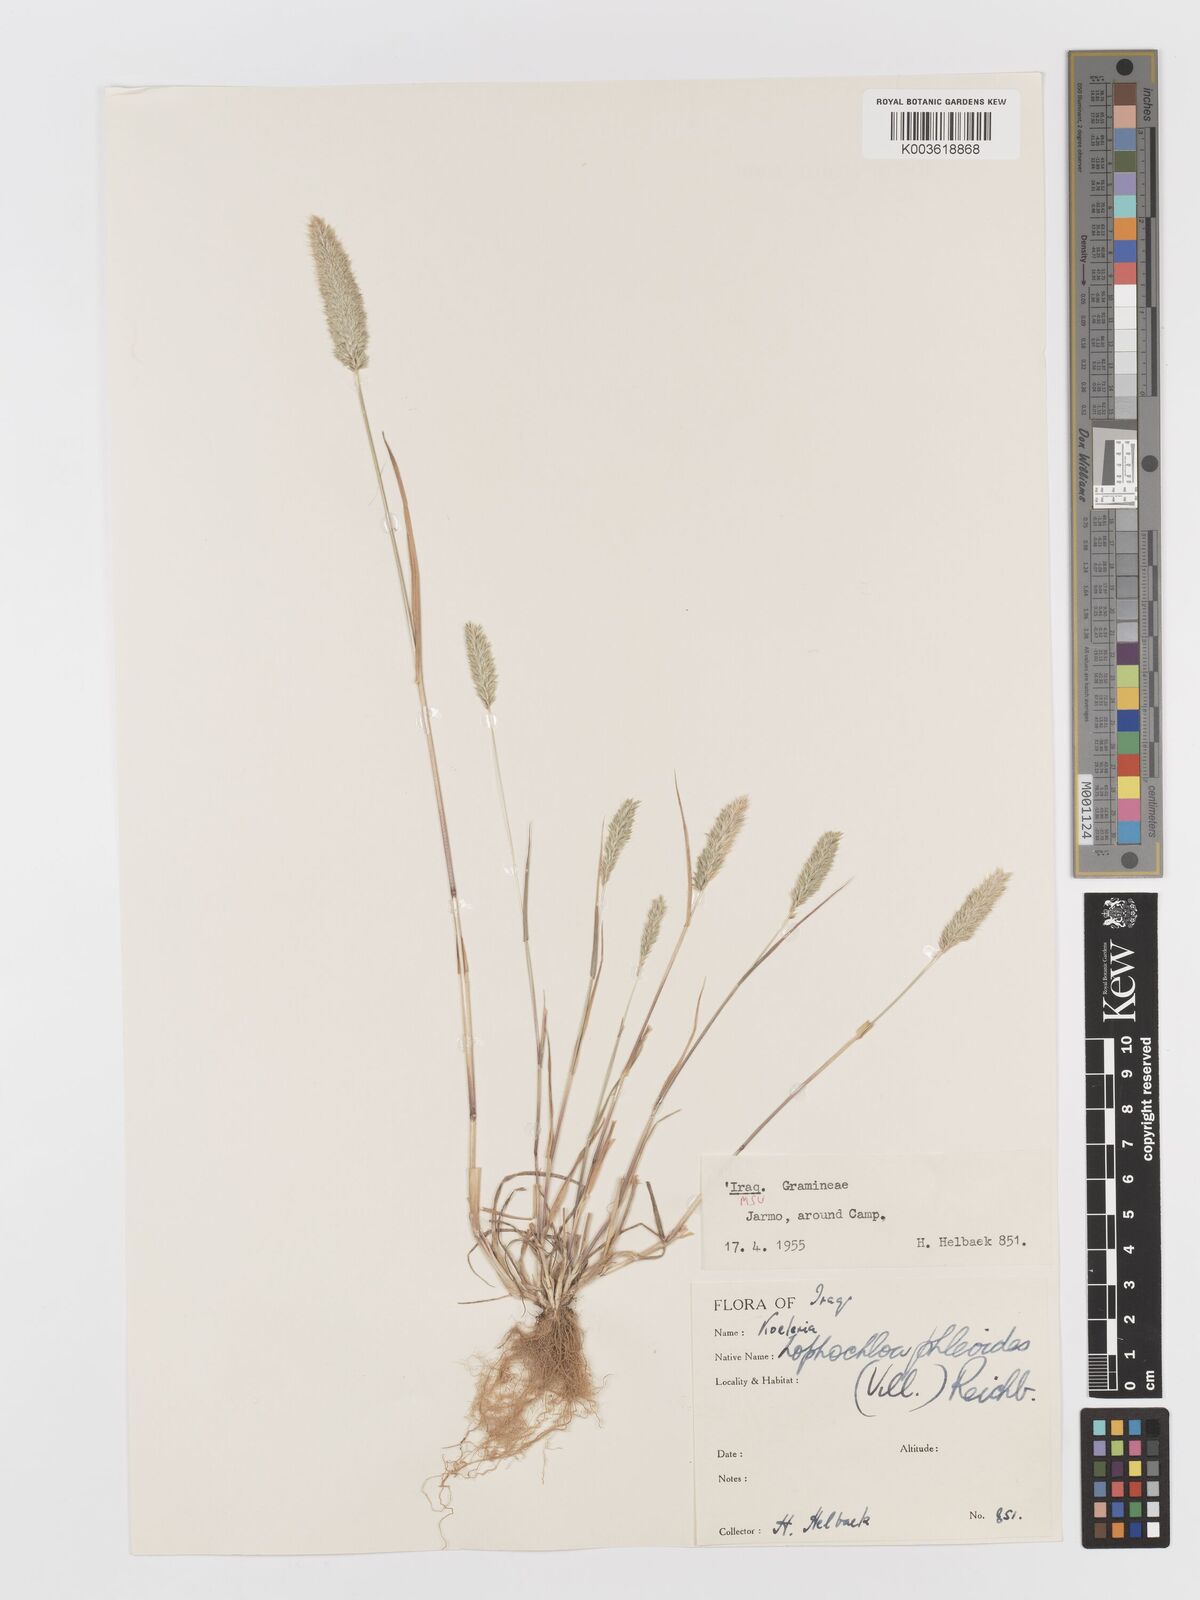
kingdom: Plantae
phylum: Tracheophyta
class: Liliopsida
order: Poales
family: Poaceae
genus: Rostraria
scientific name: Rostraria cristata
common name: Mediterranean hair-grass
